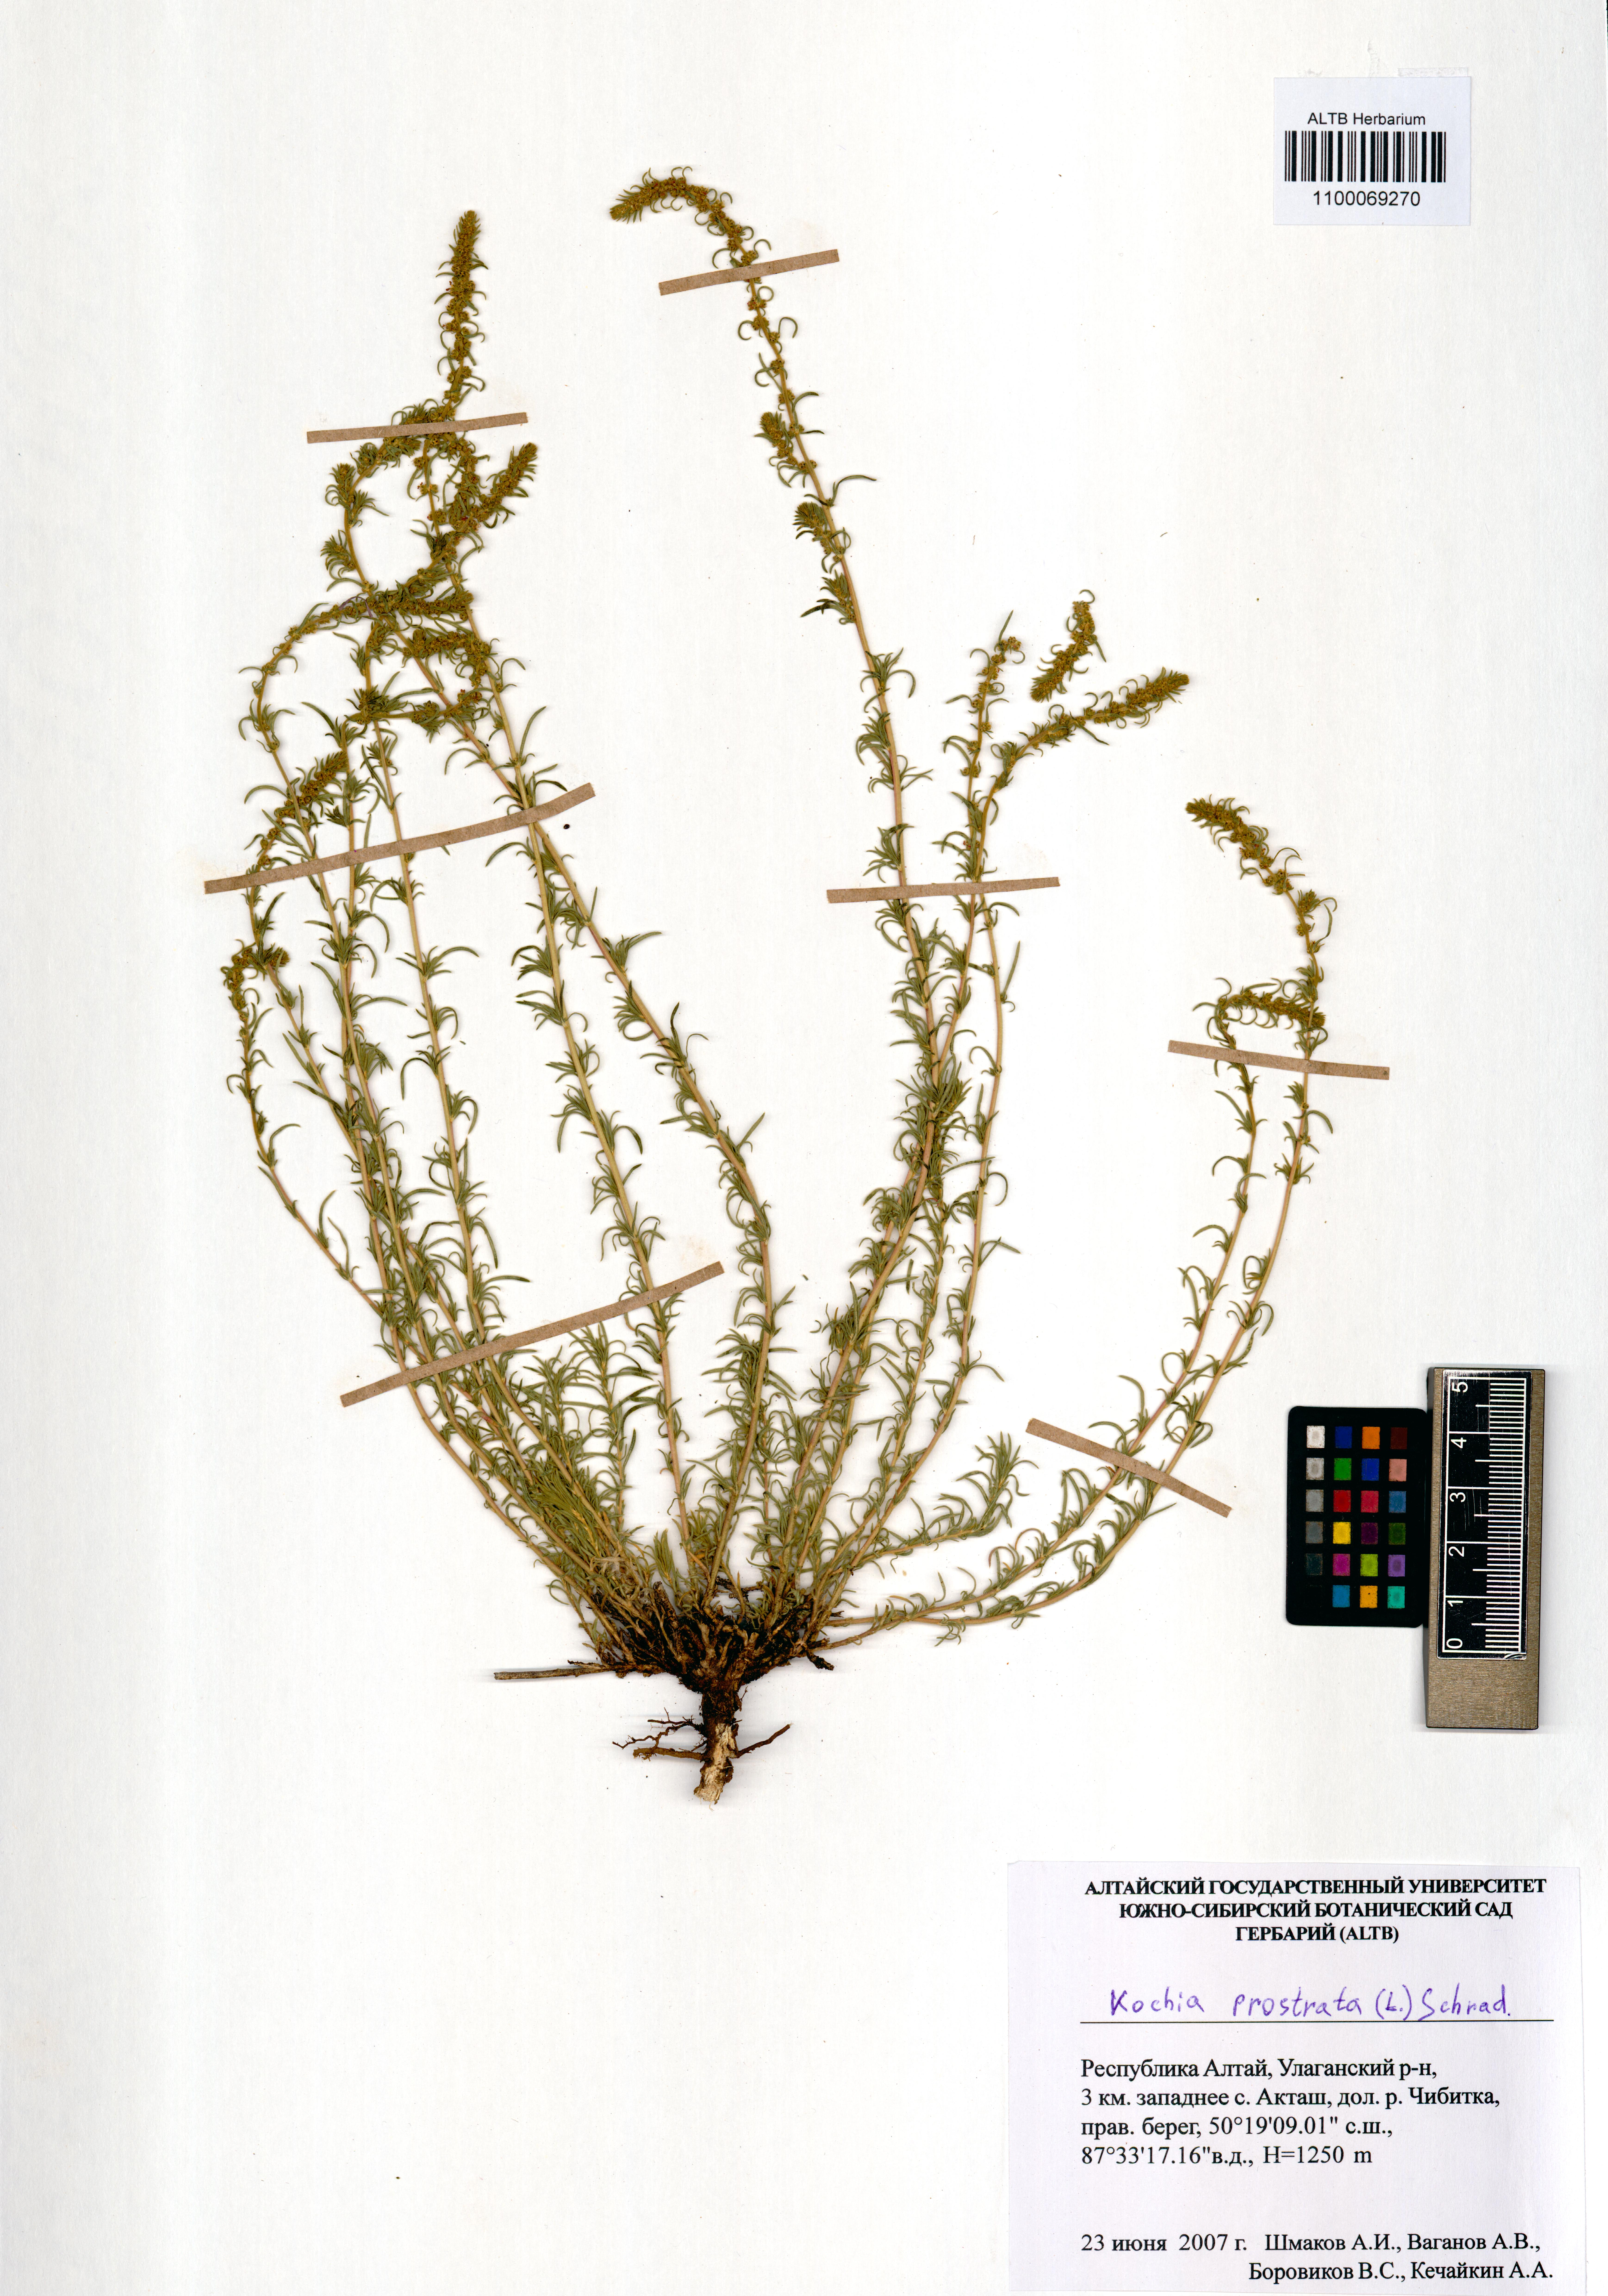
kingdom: Plantae
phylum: Tracheophyta
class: Magnoliopsida
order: Caryophyllales
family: Amaranthaceae
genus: Bassia
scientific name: Bassia prostrata
